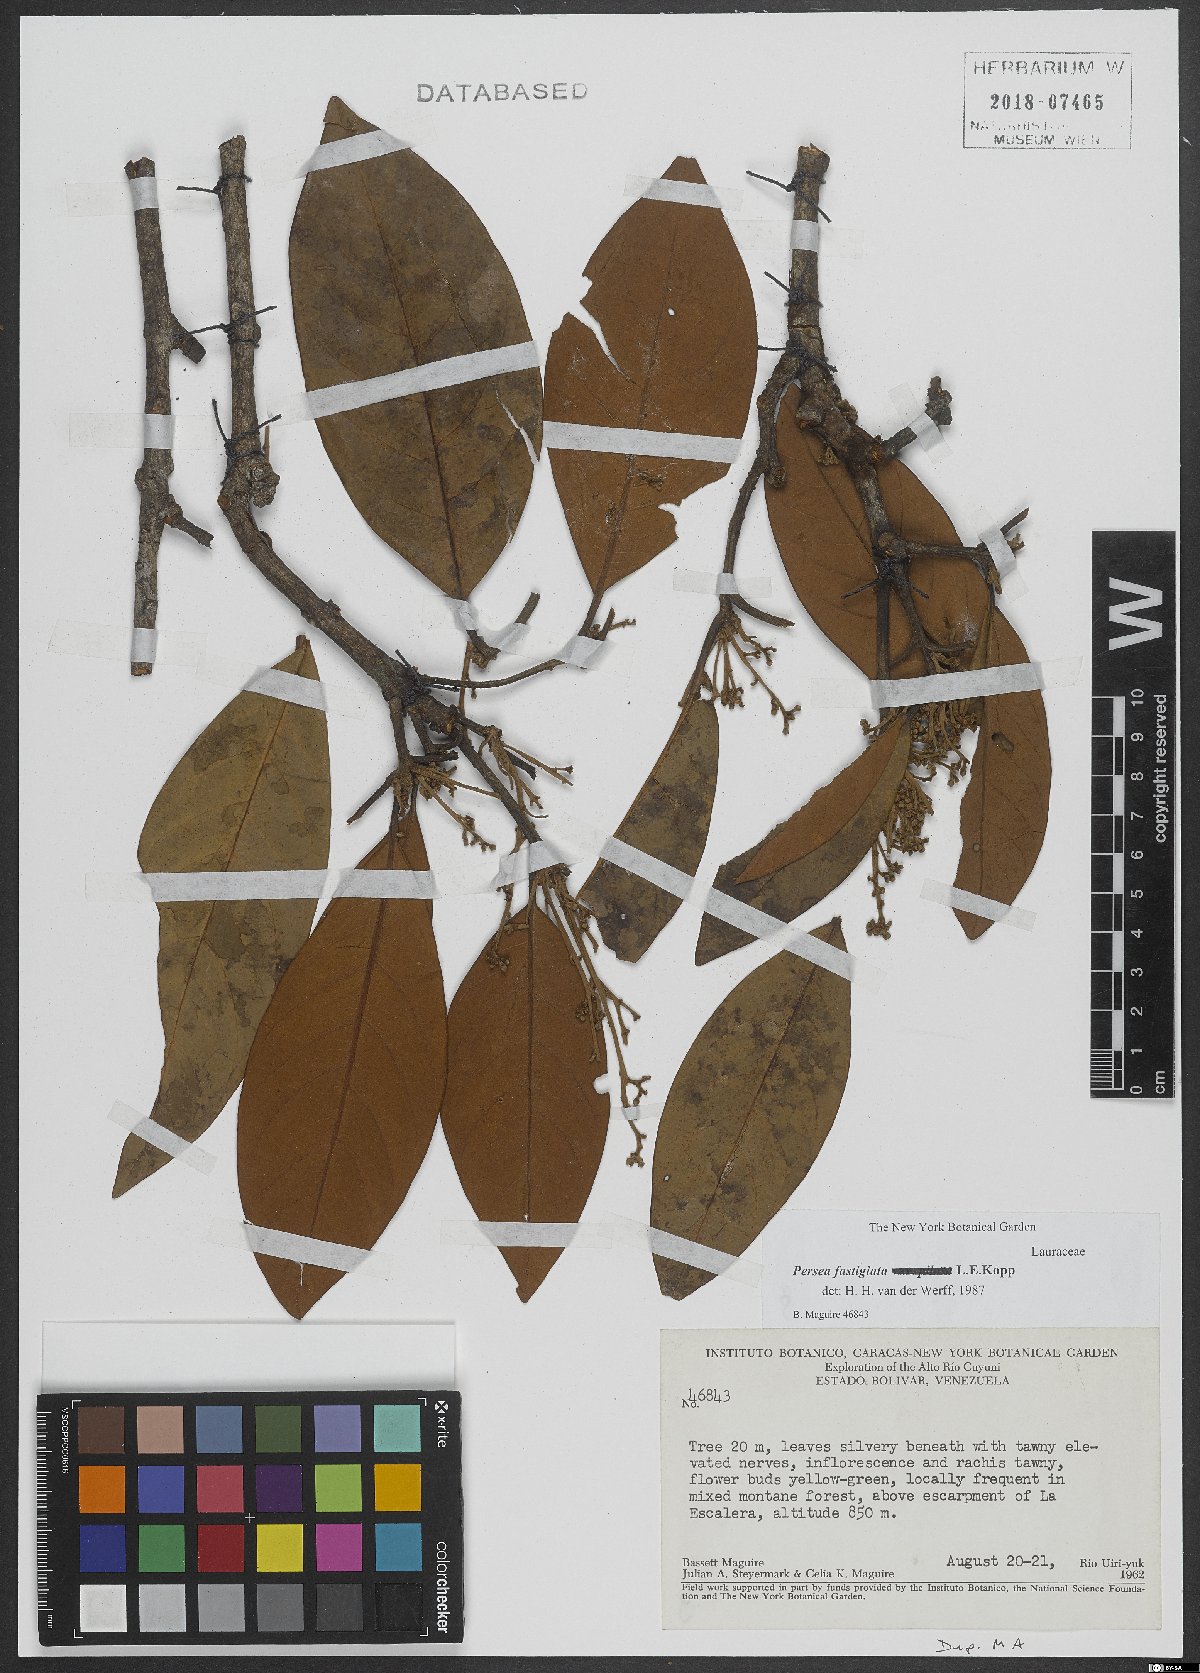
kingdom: Plantae
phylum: Tracheophyta
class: Magnoliopsida
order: Laurales
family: Lauraceae
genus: Persea
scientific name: Persea fastigiata
